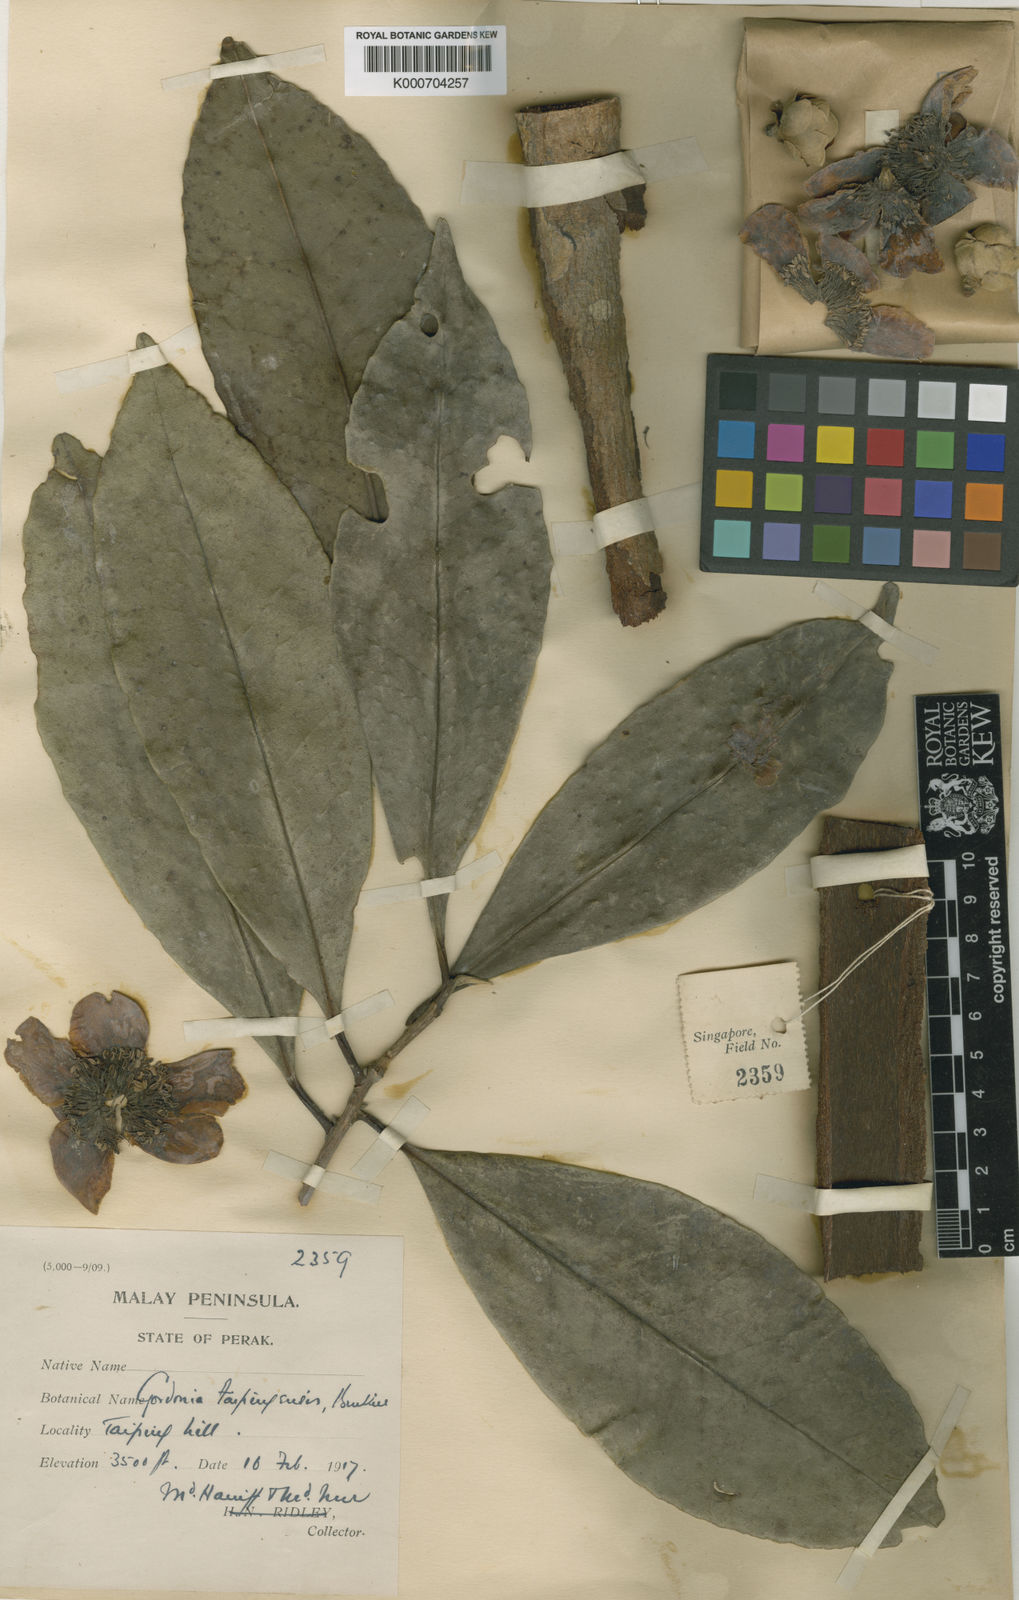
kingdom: Plantae
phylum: Tracheophyta
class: Magnoliopsida
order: Ericales
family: Theaceae
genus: Polyspora
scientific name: Polyspora taipingensis
